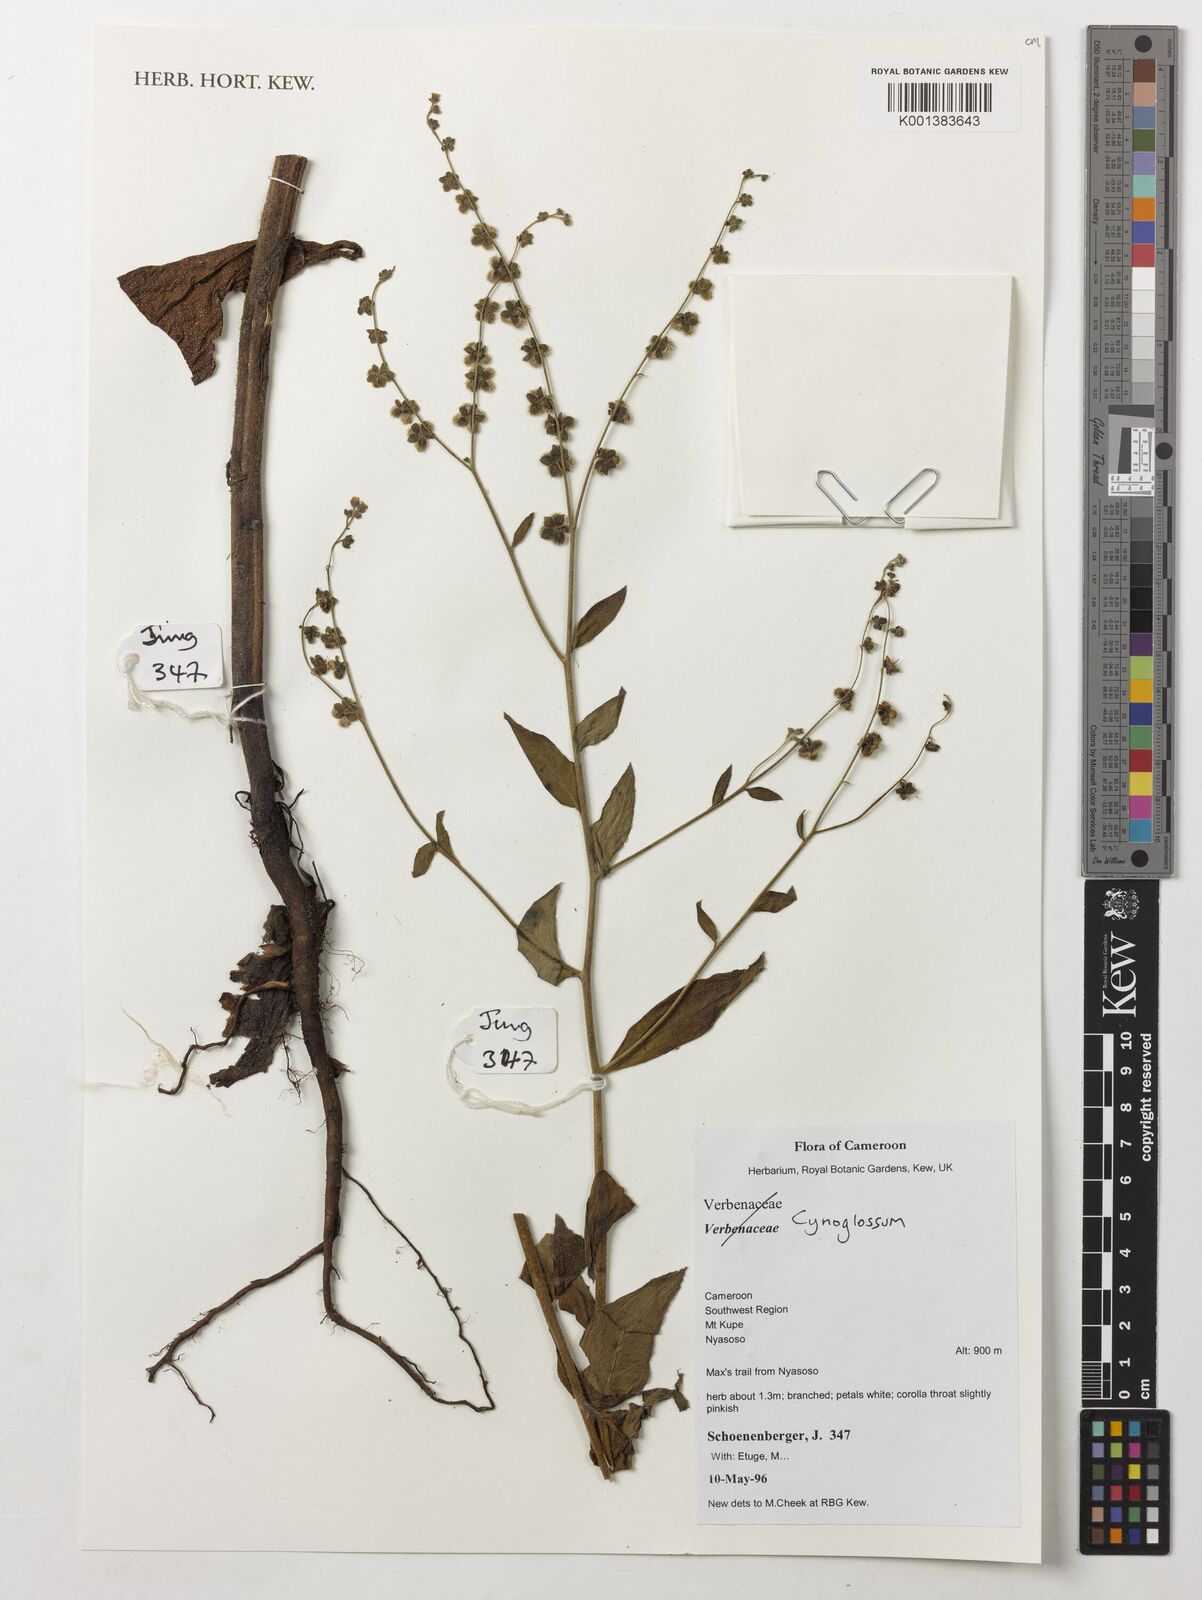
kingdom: Plantae
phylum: Tracheophyta
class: Magnoliopsida
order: Boraginales
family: Boraginaceae
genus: Cynoglossum
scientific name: Cynoglossum
